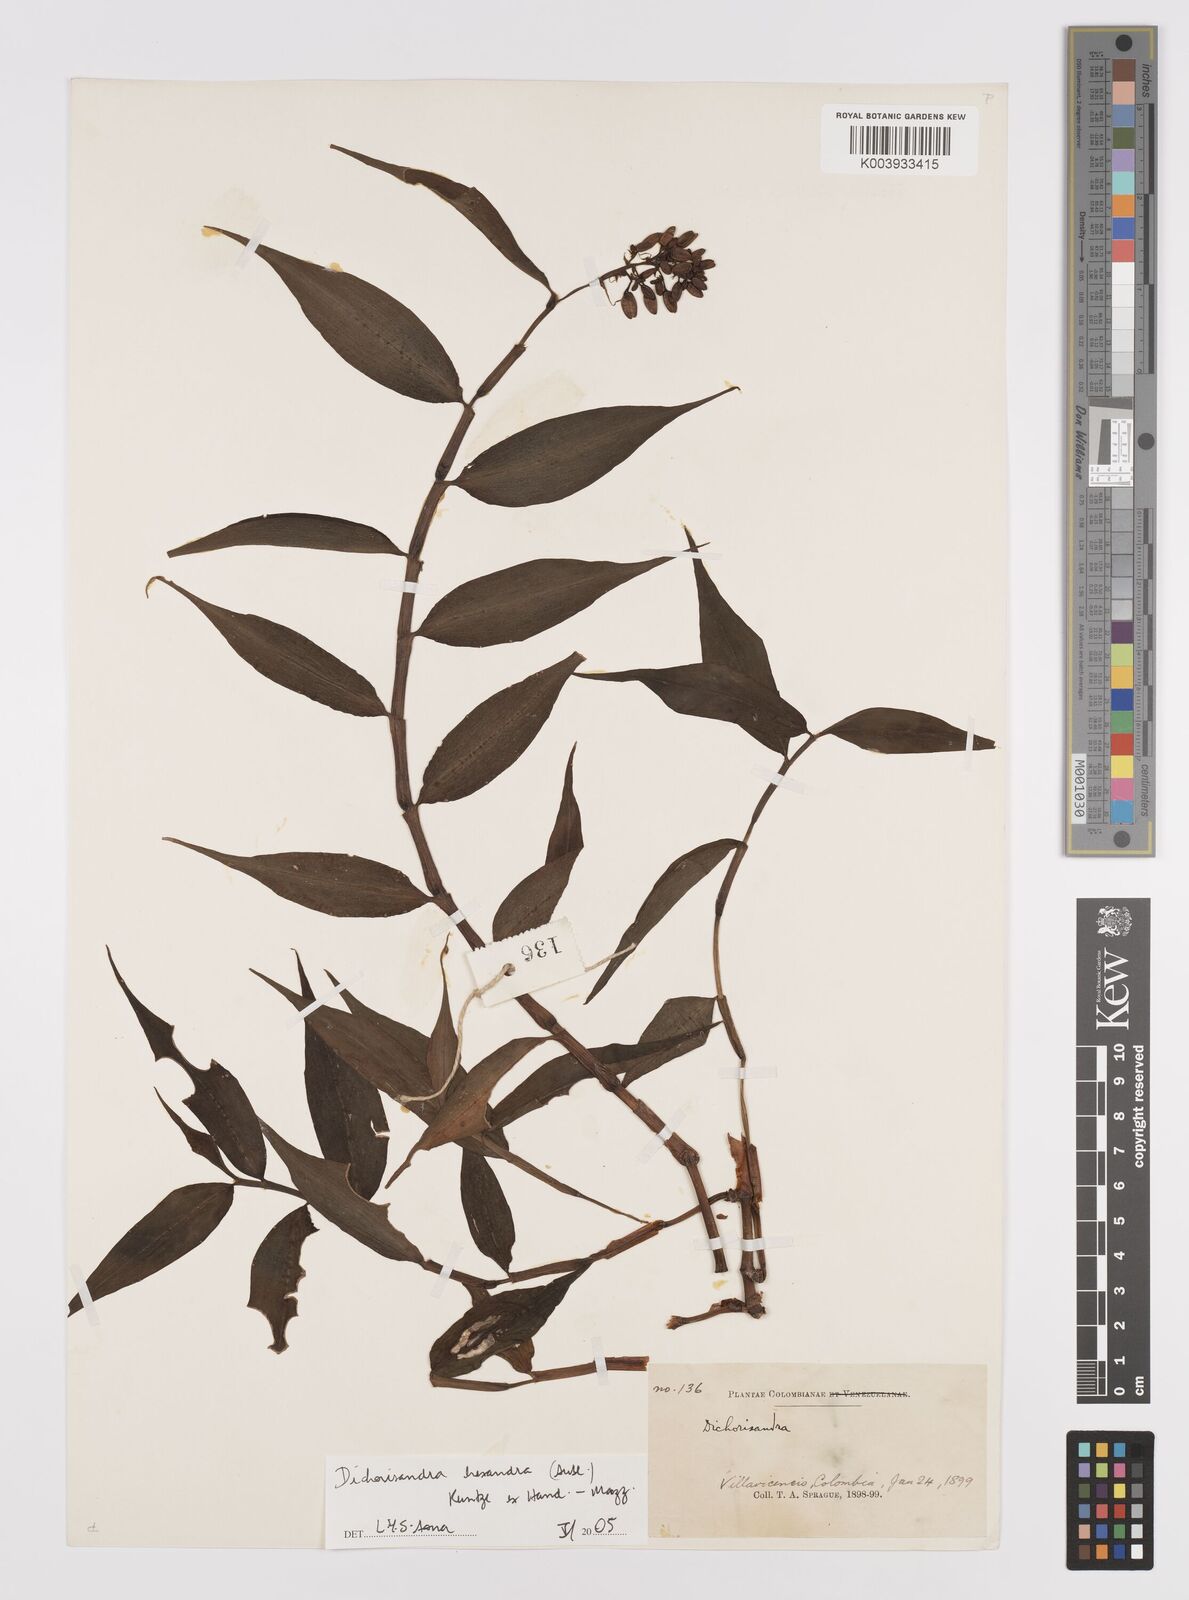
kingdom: Plantae
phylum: Tracheophyta
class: Liliopsida
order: Commelinales
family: Commelinaceae
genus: Dichorisandra
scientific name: Dichorisandra hexandra
